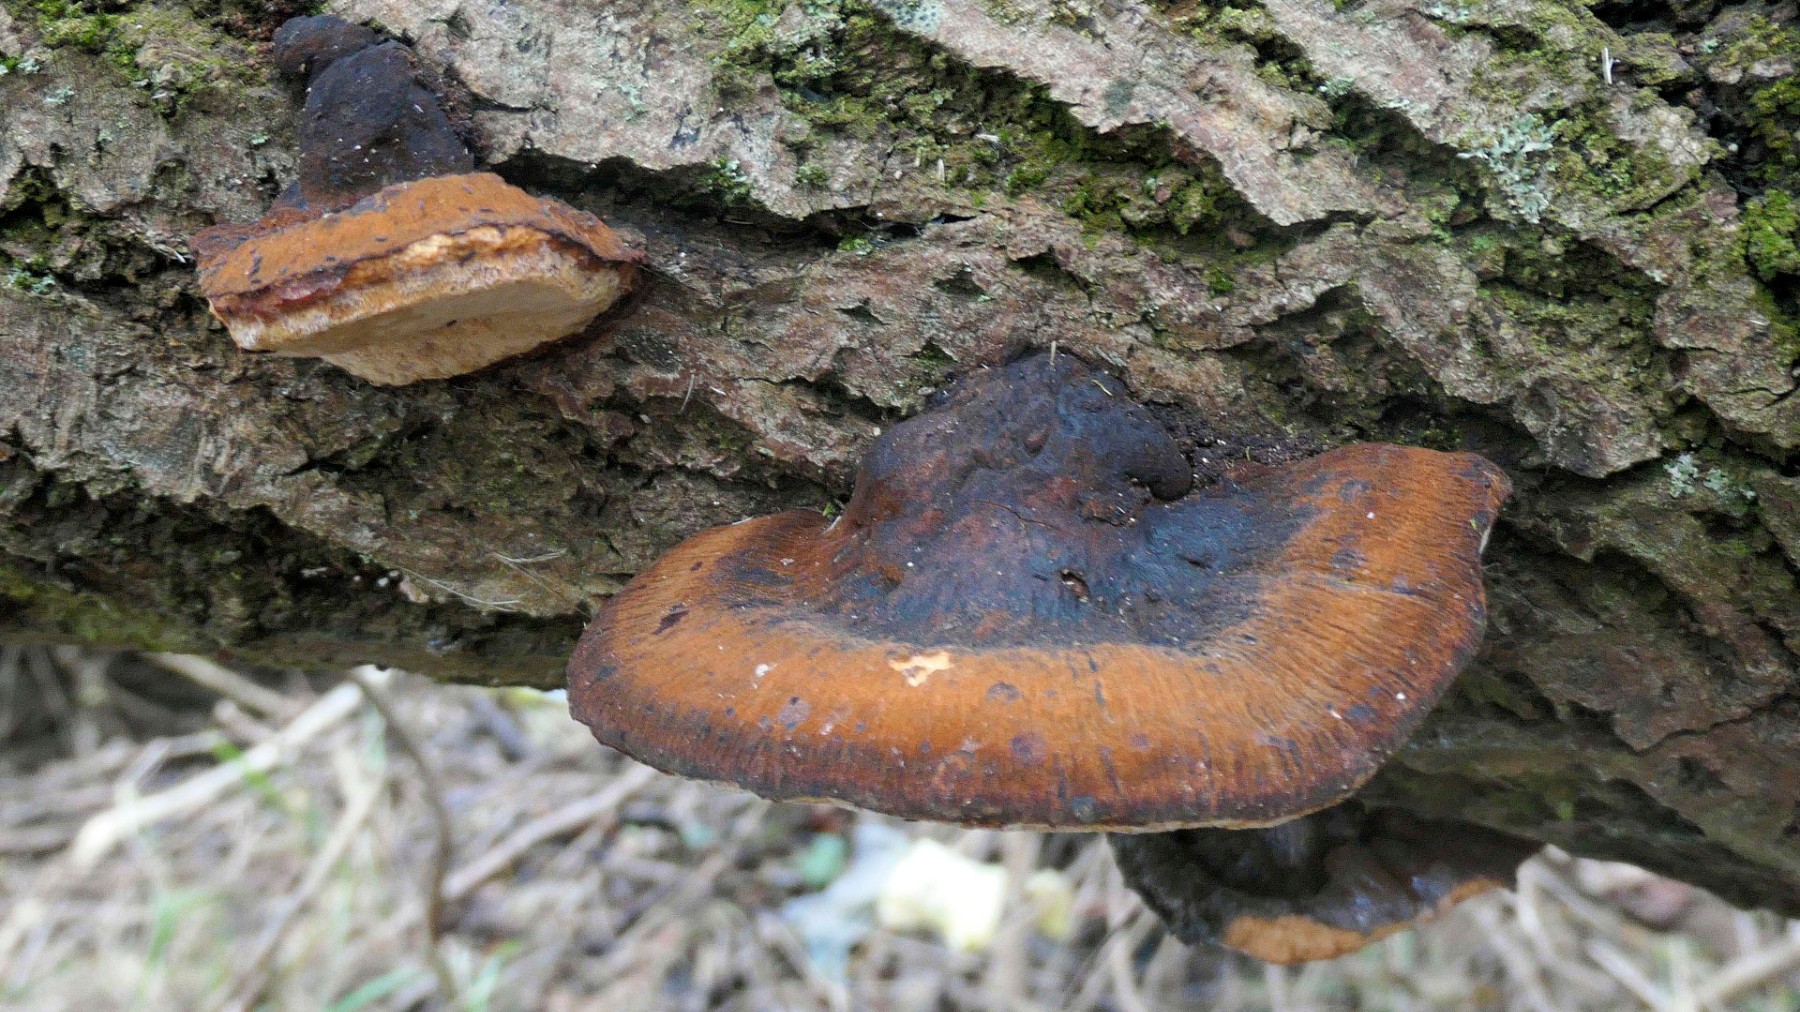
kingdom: Fungi
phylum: Basidiomycota
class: Agaricomycetes
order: Polyporales
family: Ischnodermataceae
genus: Ischnoderma
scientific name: Ischnoderma resinosum
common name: løv-tjæreporesvamp
